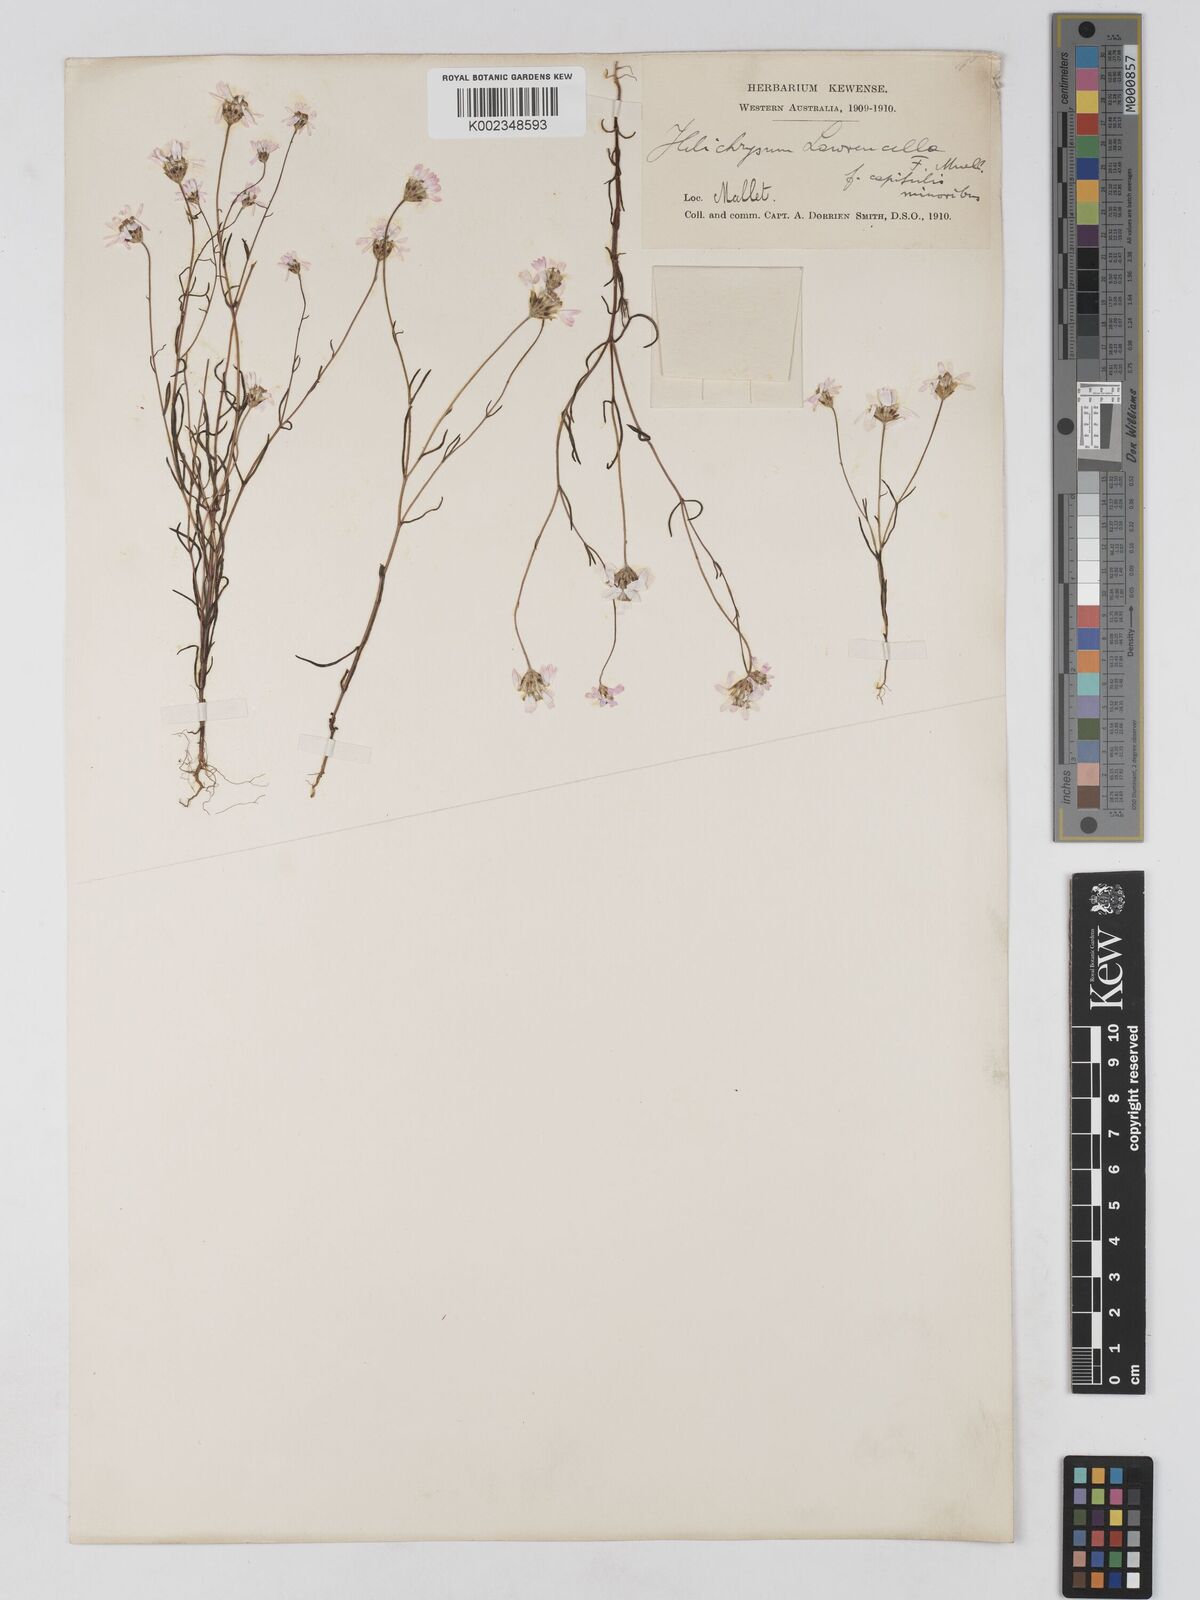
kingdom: Plantae
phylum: Tracheophyta
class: Magnoliopsida
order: Asterales
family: Asteraceae
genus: Lawrencella
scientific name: Lawrencella rosea
